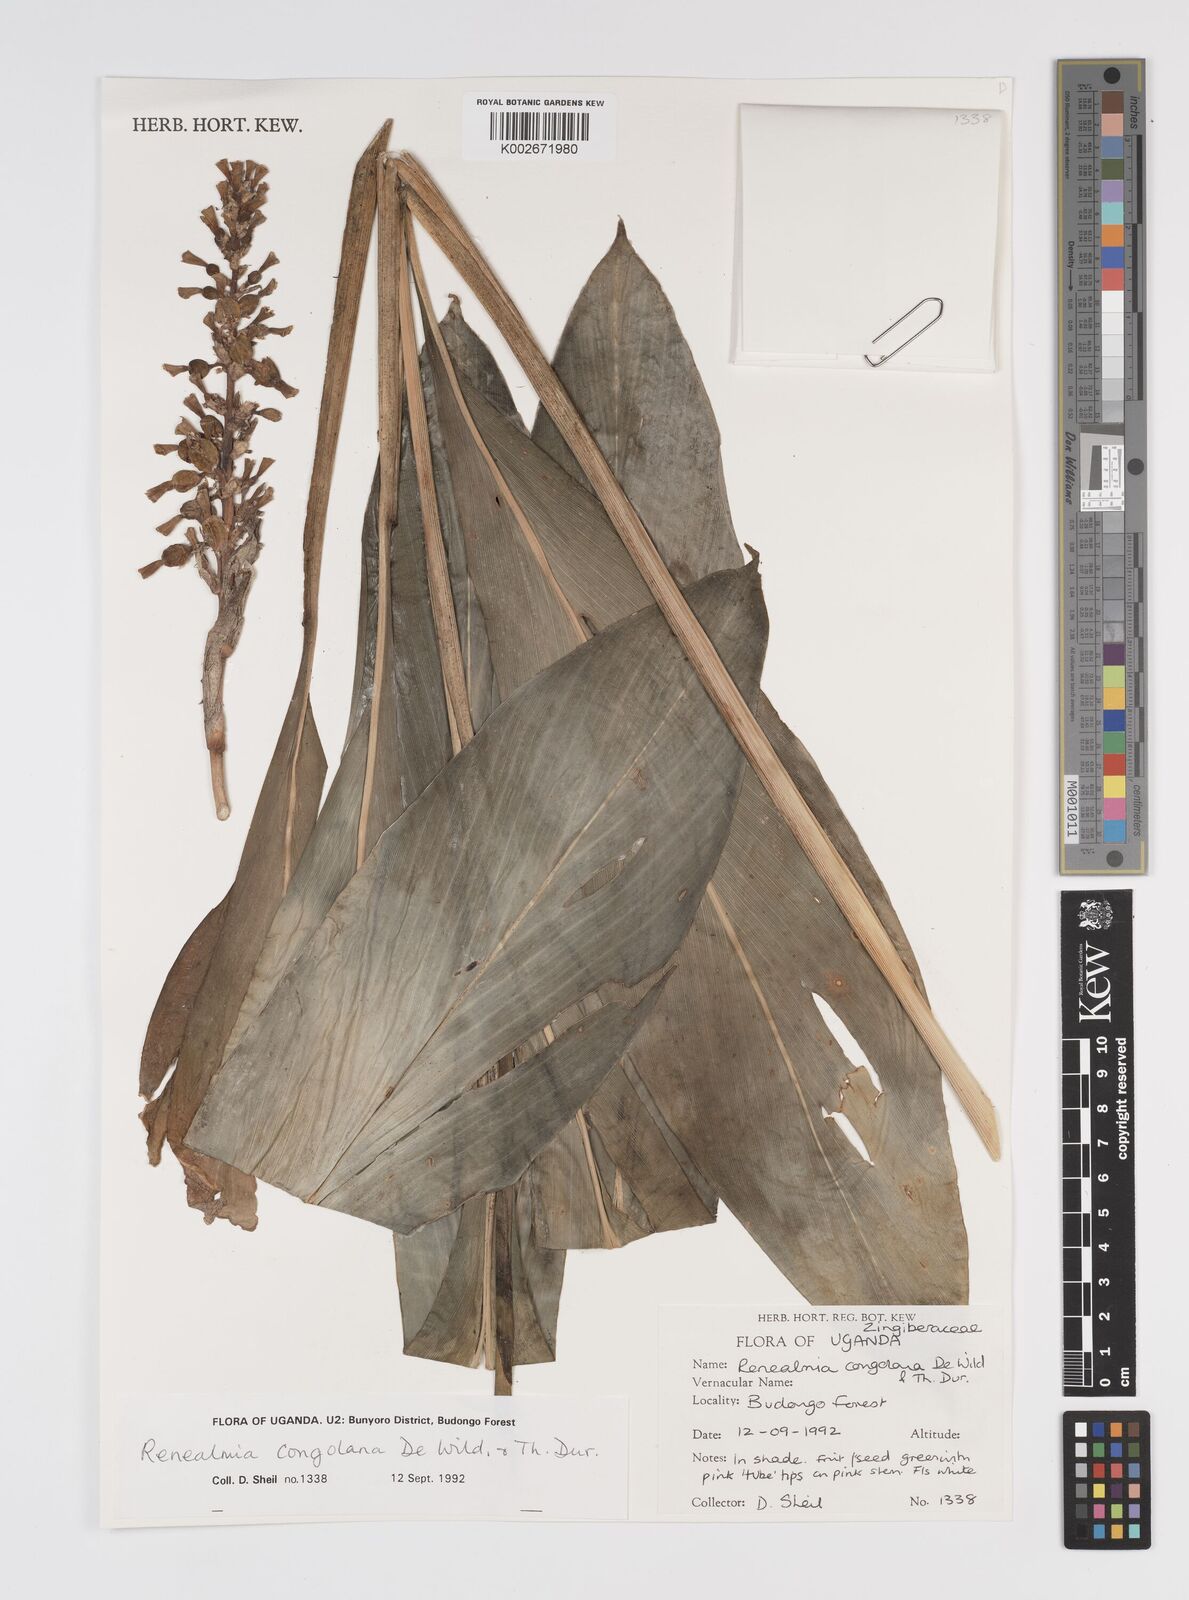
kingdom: Plantae
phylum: Tracheophyta
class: Liliopsida
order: Zingiberales
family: Zingiberaceae
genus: Renealmia
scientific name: Renealmia congolana
